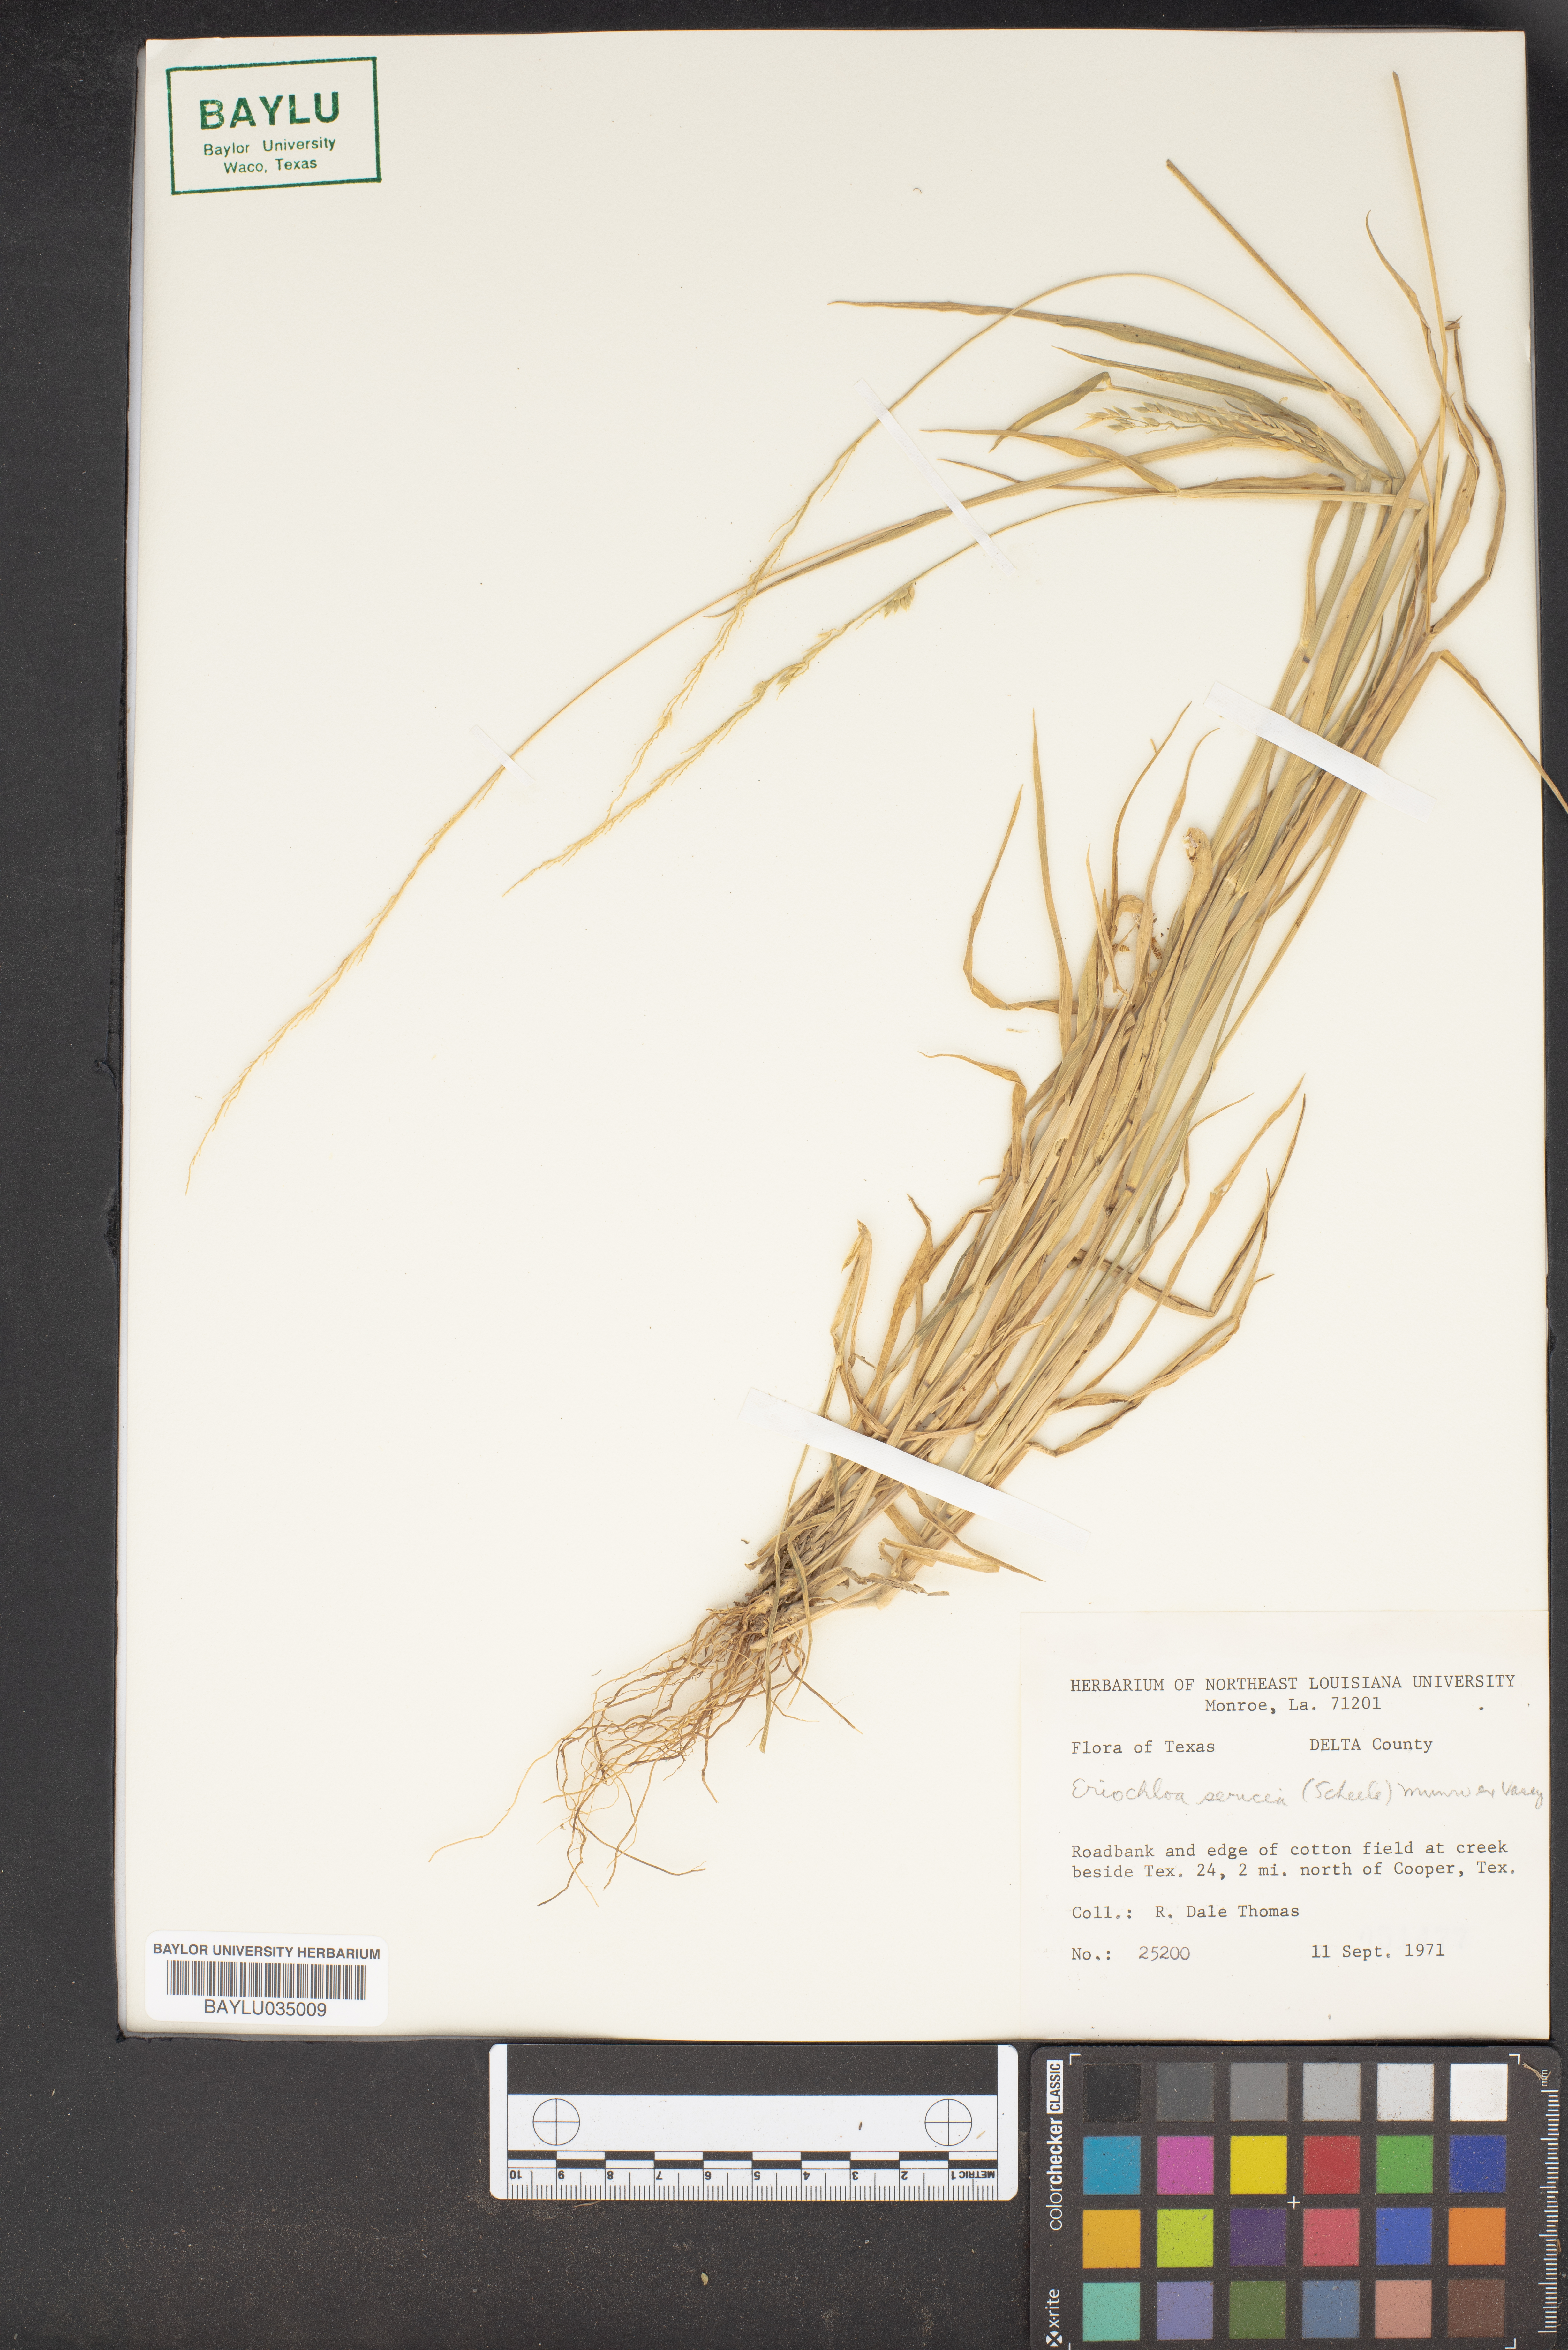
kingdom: Plantae
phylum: Tracheophyta
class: Liliopsida
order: Poales
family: Poaceae
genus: Eriochloa
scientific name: Eriochloa sericea
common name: Texas cup grass
